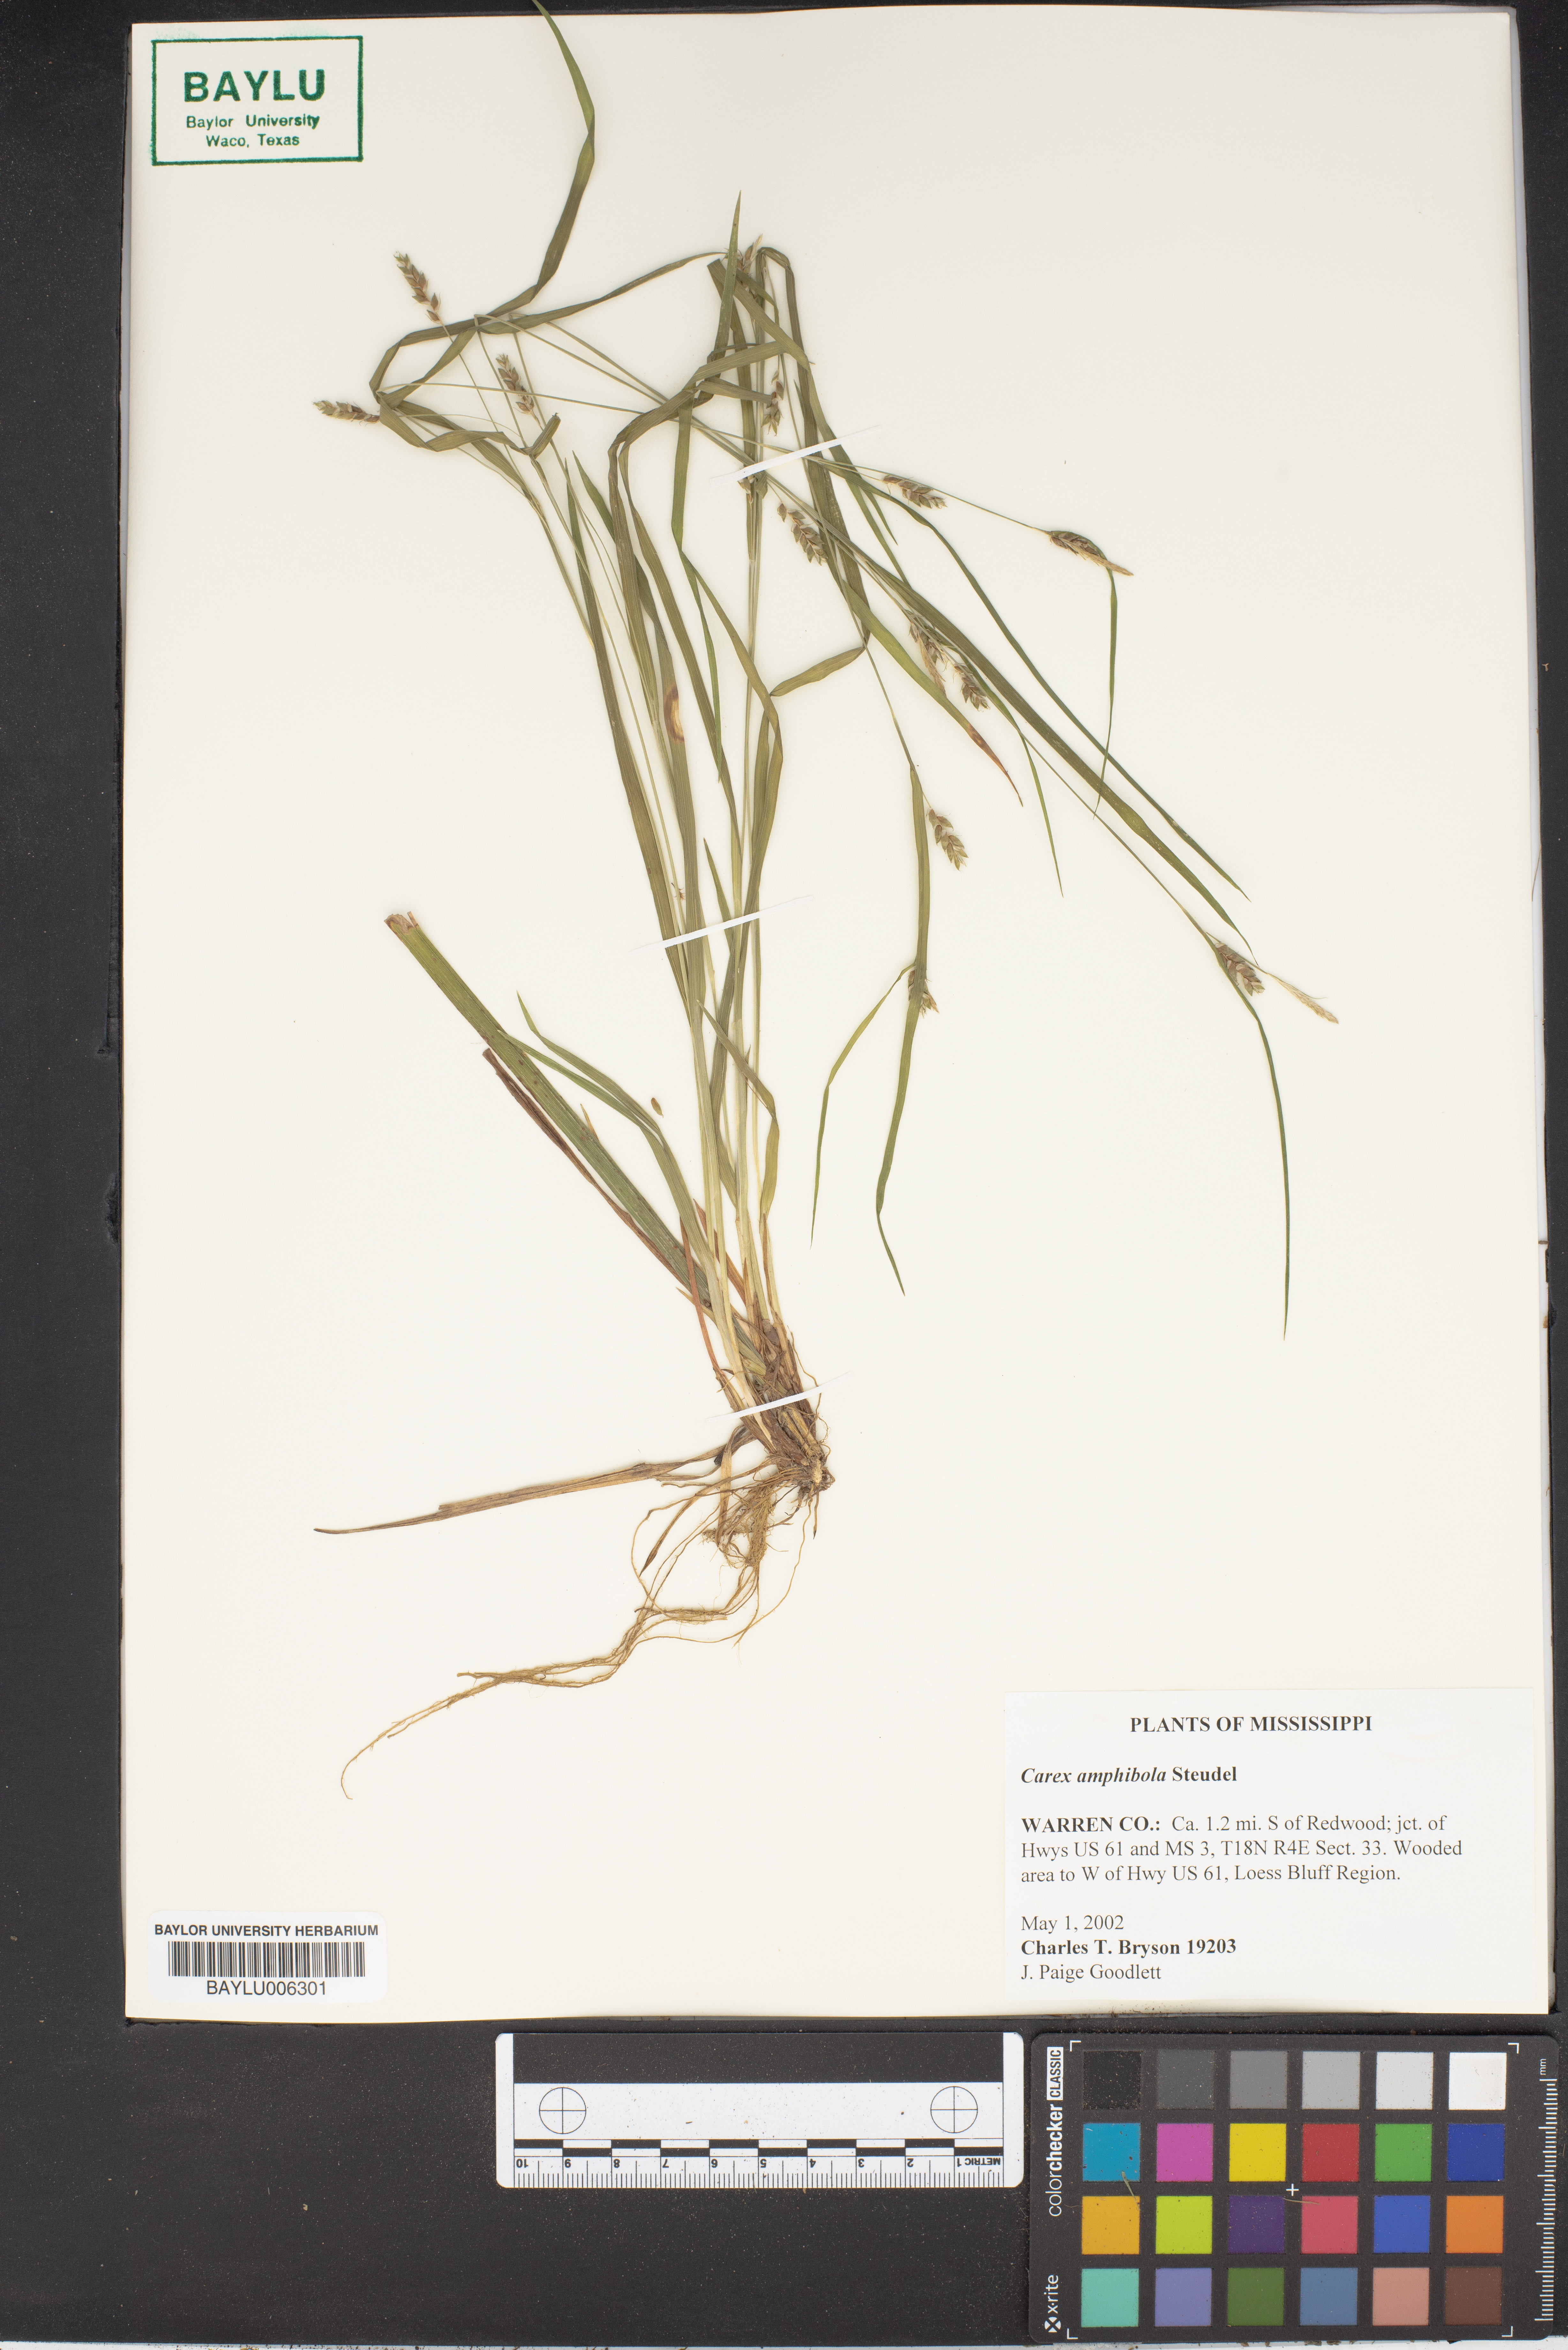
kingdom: Plantae
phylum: Tracheophyta
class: Liliopsida
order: Poales
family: Cyperaceae
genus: Carex
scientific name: Carex amphibola
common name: Amphibious sedge
